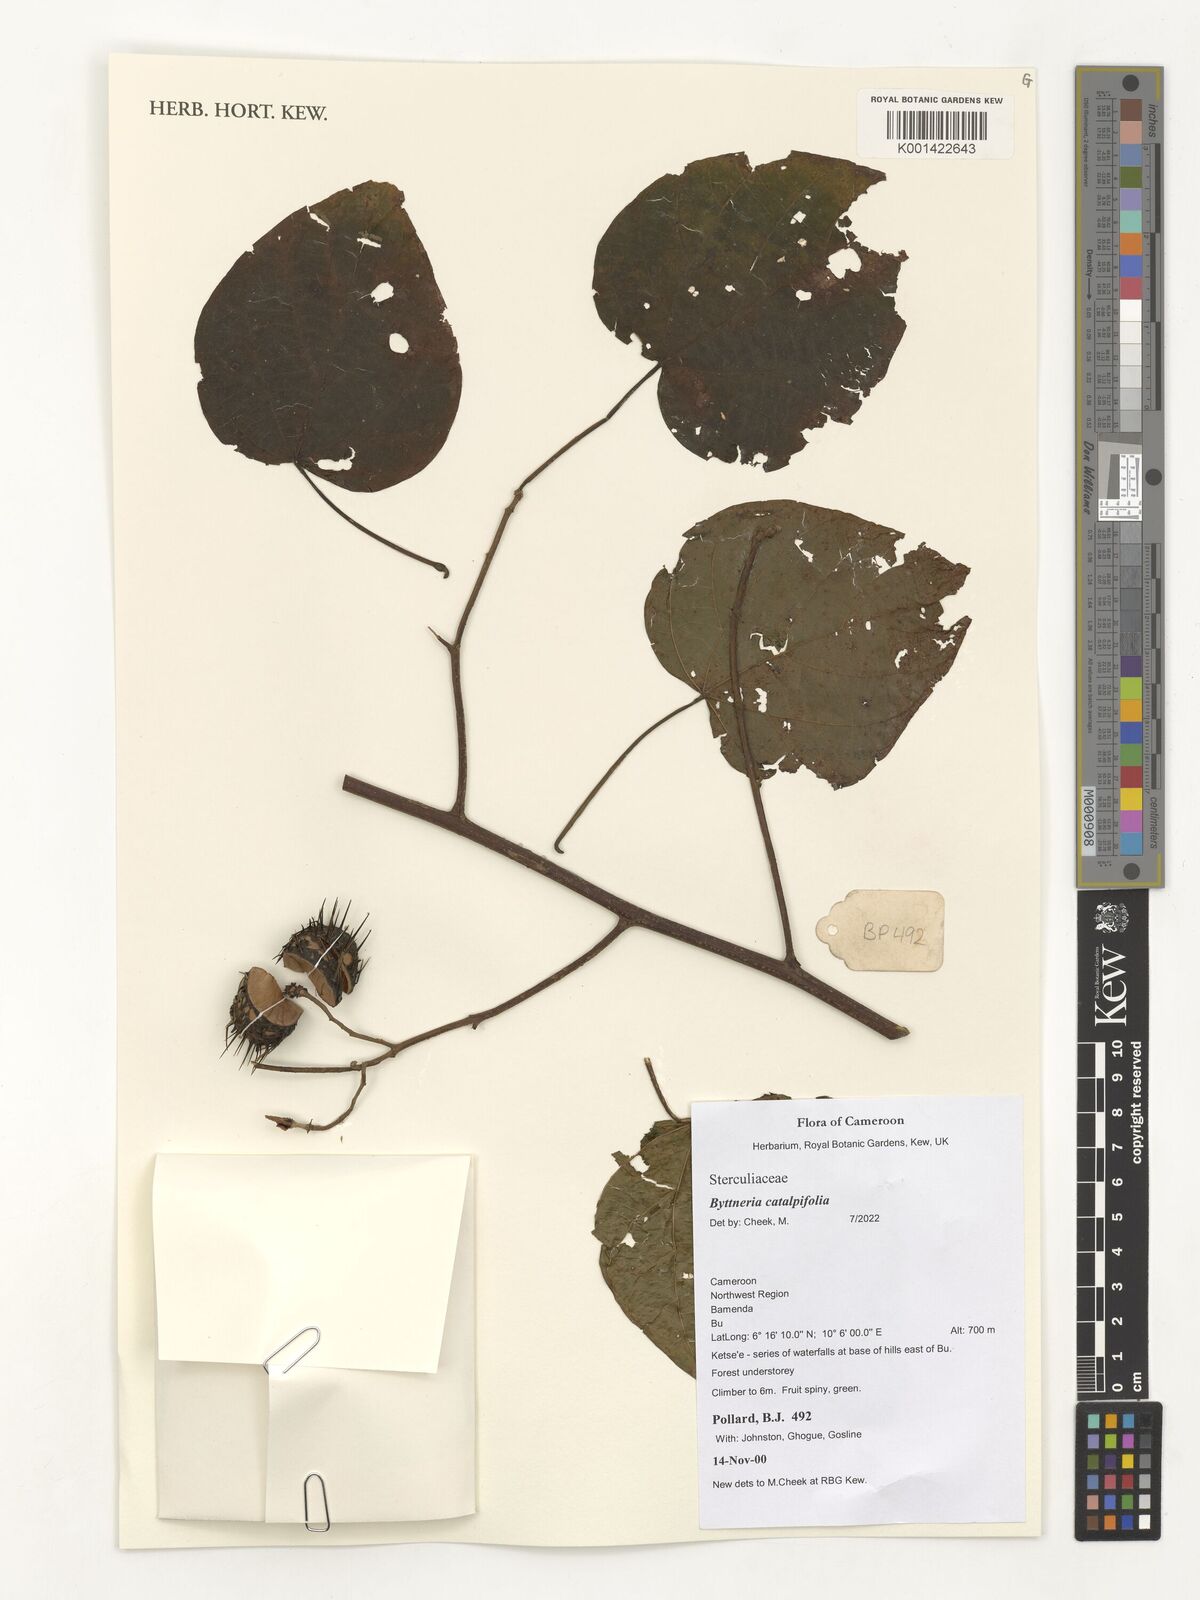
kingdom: Plantae
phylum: Tracheophyta
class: Magnoliopsida
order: Malvales
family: Malvaceae
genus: Byttneria
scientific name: Byttneria catalpifolia
